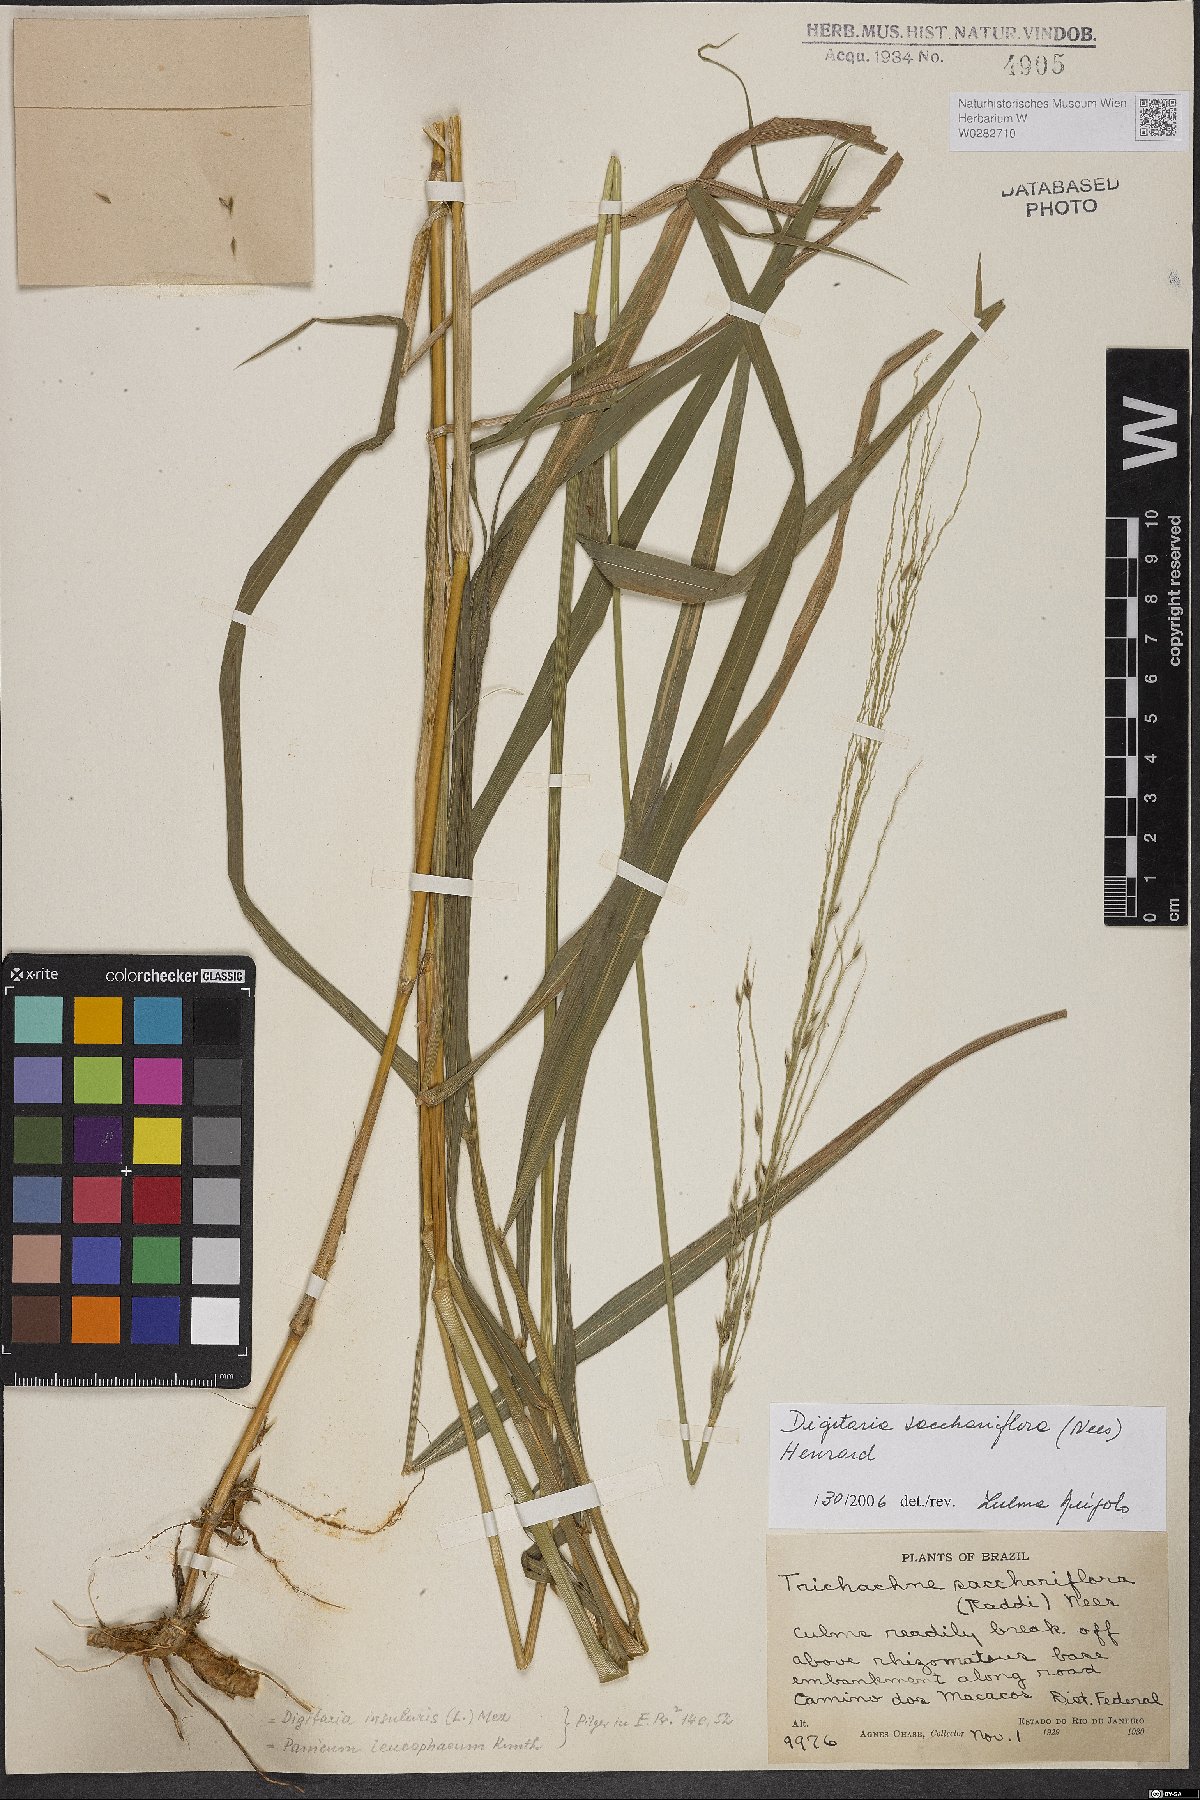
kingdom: Plantae
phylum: Tracheophyta
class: Liliopsida
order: Poales
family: Poaceae
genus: Digitaria
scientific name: Digitaria sacchariflora
